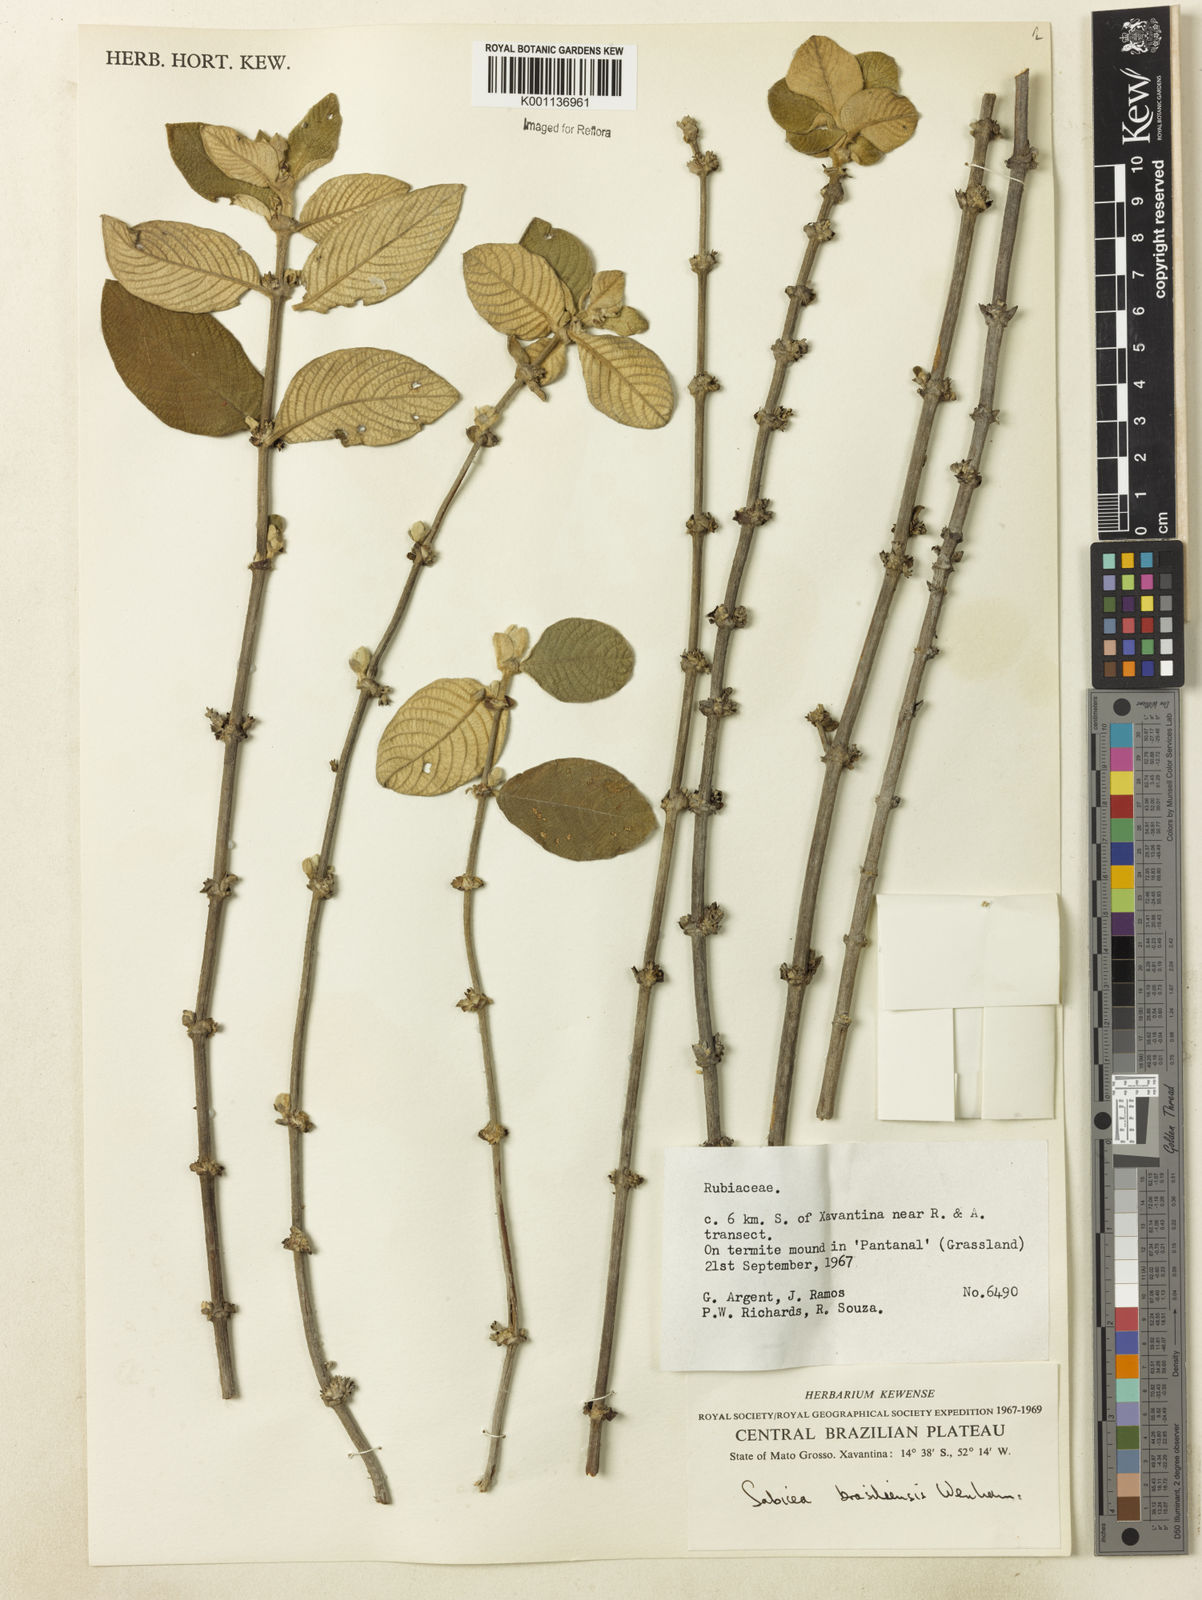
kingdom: Plantae
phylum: Tracheophyta
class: Magnoliopsida
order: Gentianales
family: Rubiaceae
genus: Sabicea
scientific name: Sabicea brasiliensis
